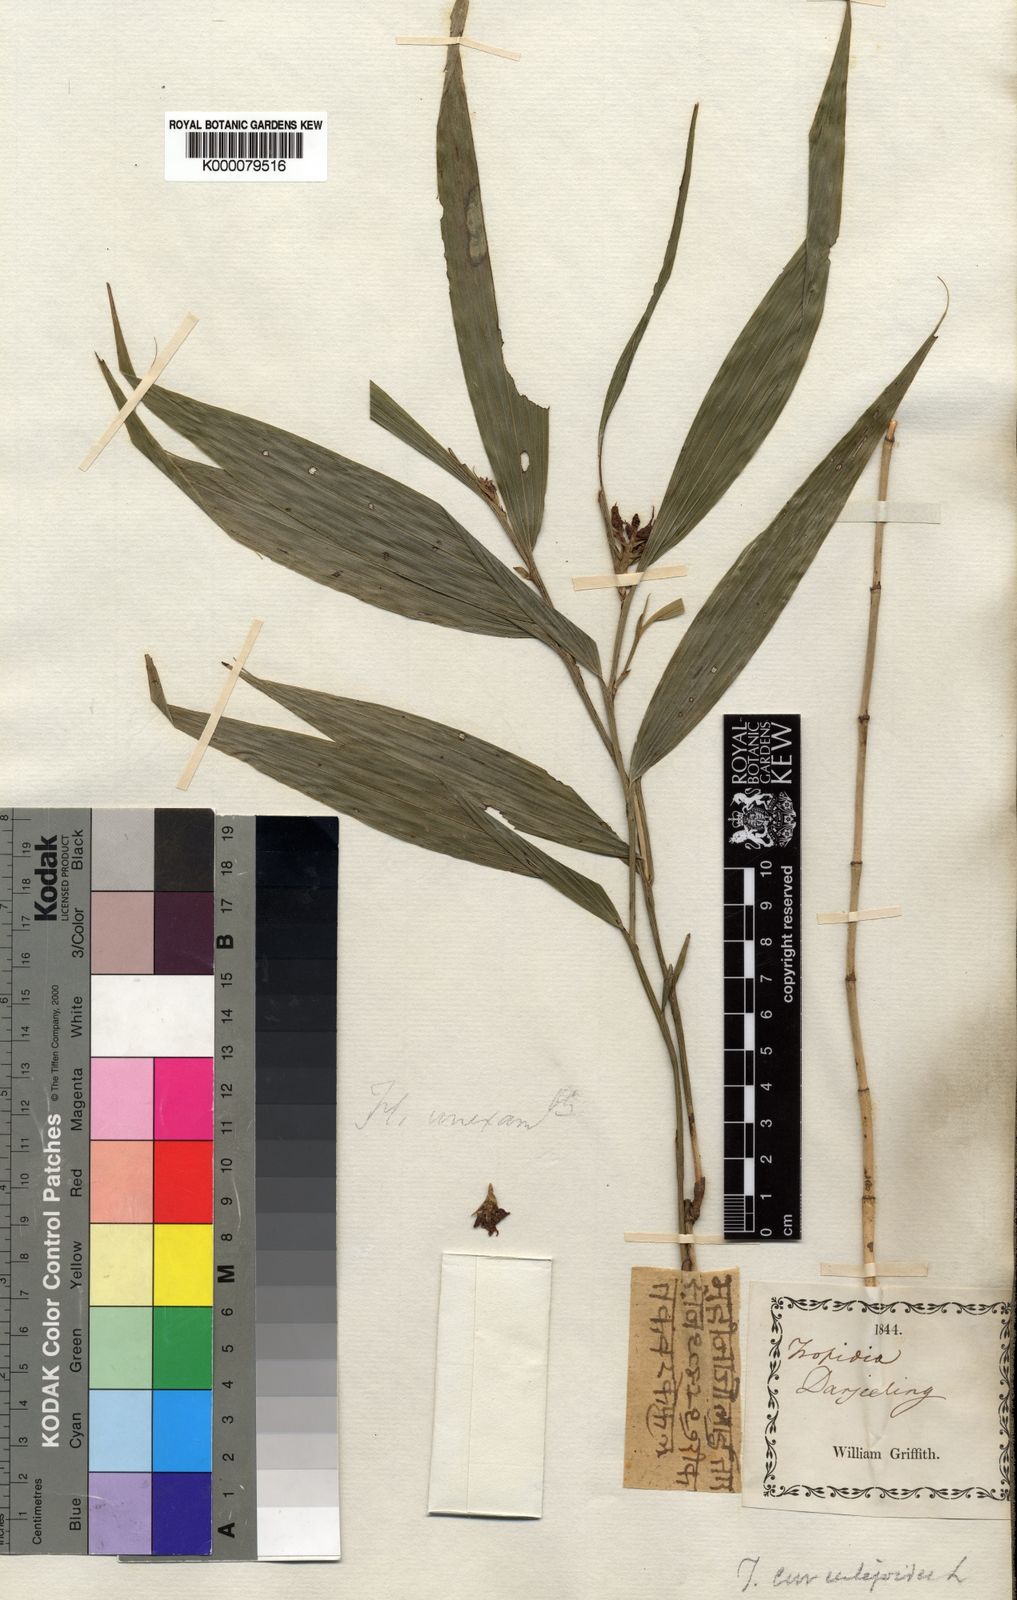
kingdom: Plantae
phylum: Tracheophyta
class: Liliopsida
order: Asparagales
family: Orchidaceae
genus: Tropidia
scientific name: Tropidia curculigoides
